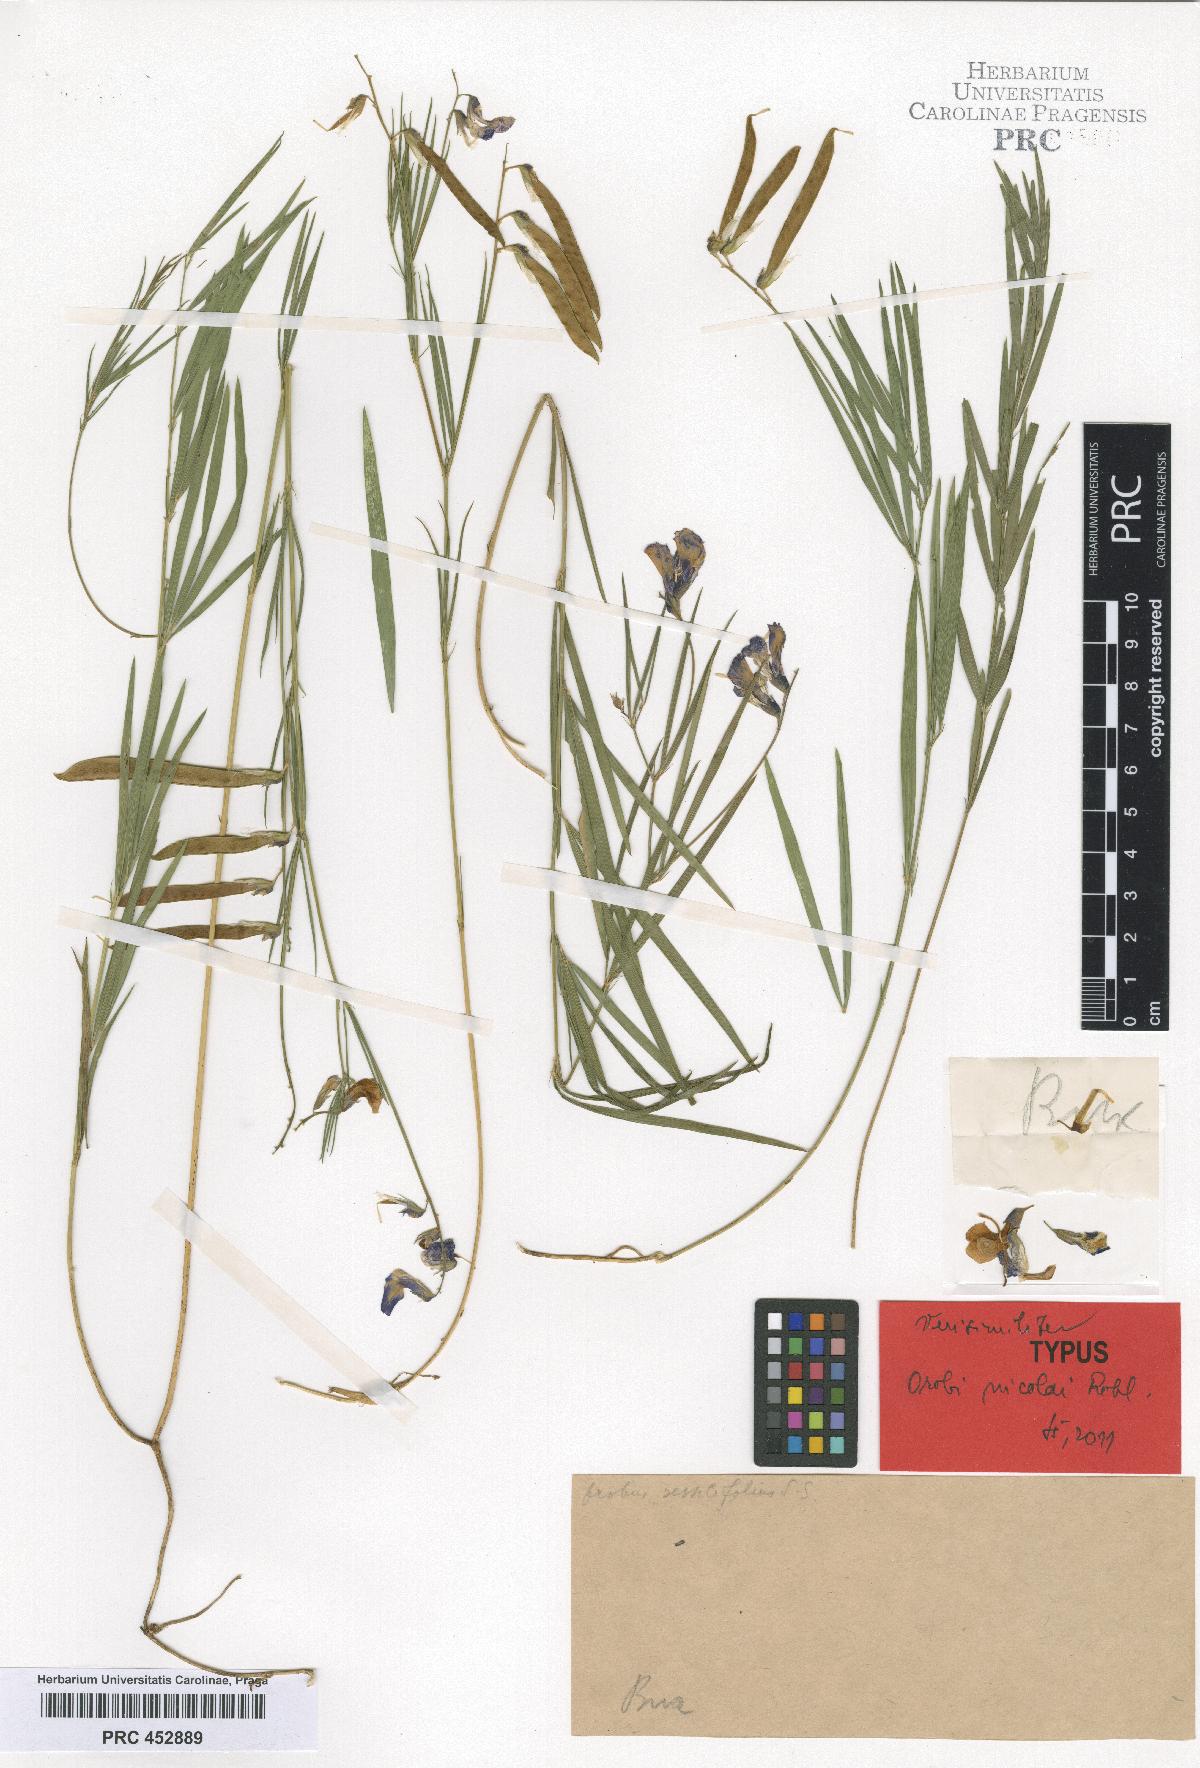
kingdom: Plantae
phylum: Tracheophyta
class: Magnoliopsida
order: Fabales
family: Fabaceae
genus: Lathyrus
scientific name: Lathyrus bauhini
